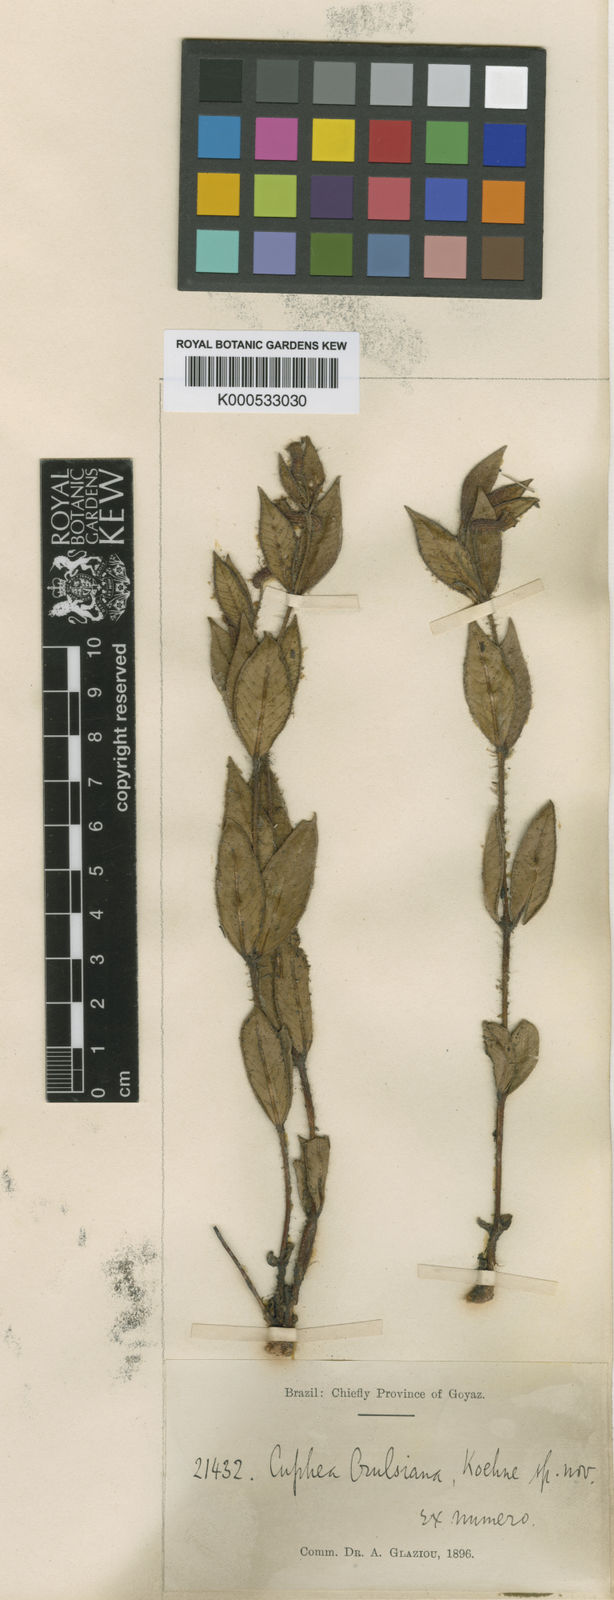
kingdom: Plantae
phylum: Tracheophyta
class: Magnoliopsida
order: Myrtales
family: Lythraceae
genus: Cuphea
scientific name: Cuphea spermacoce
